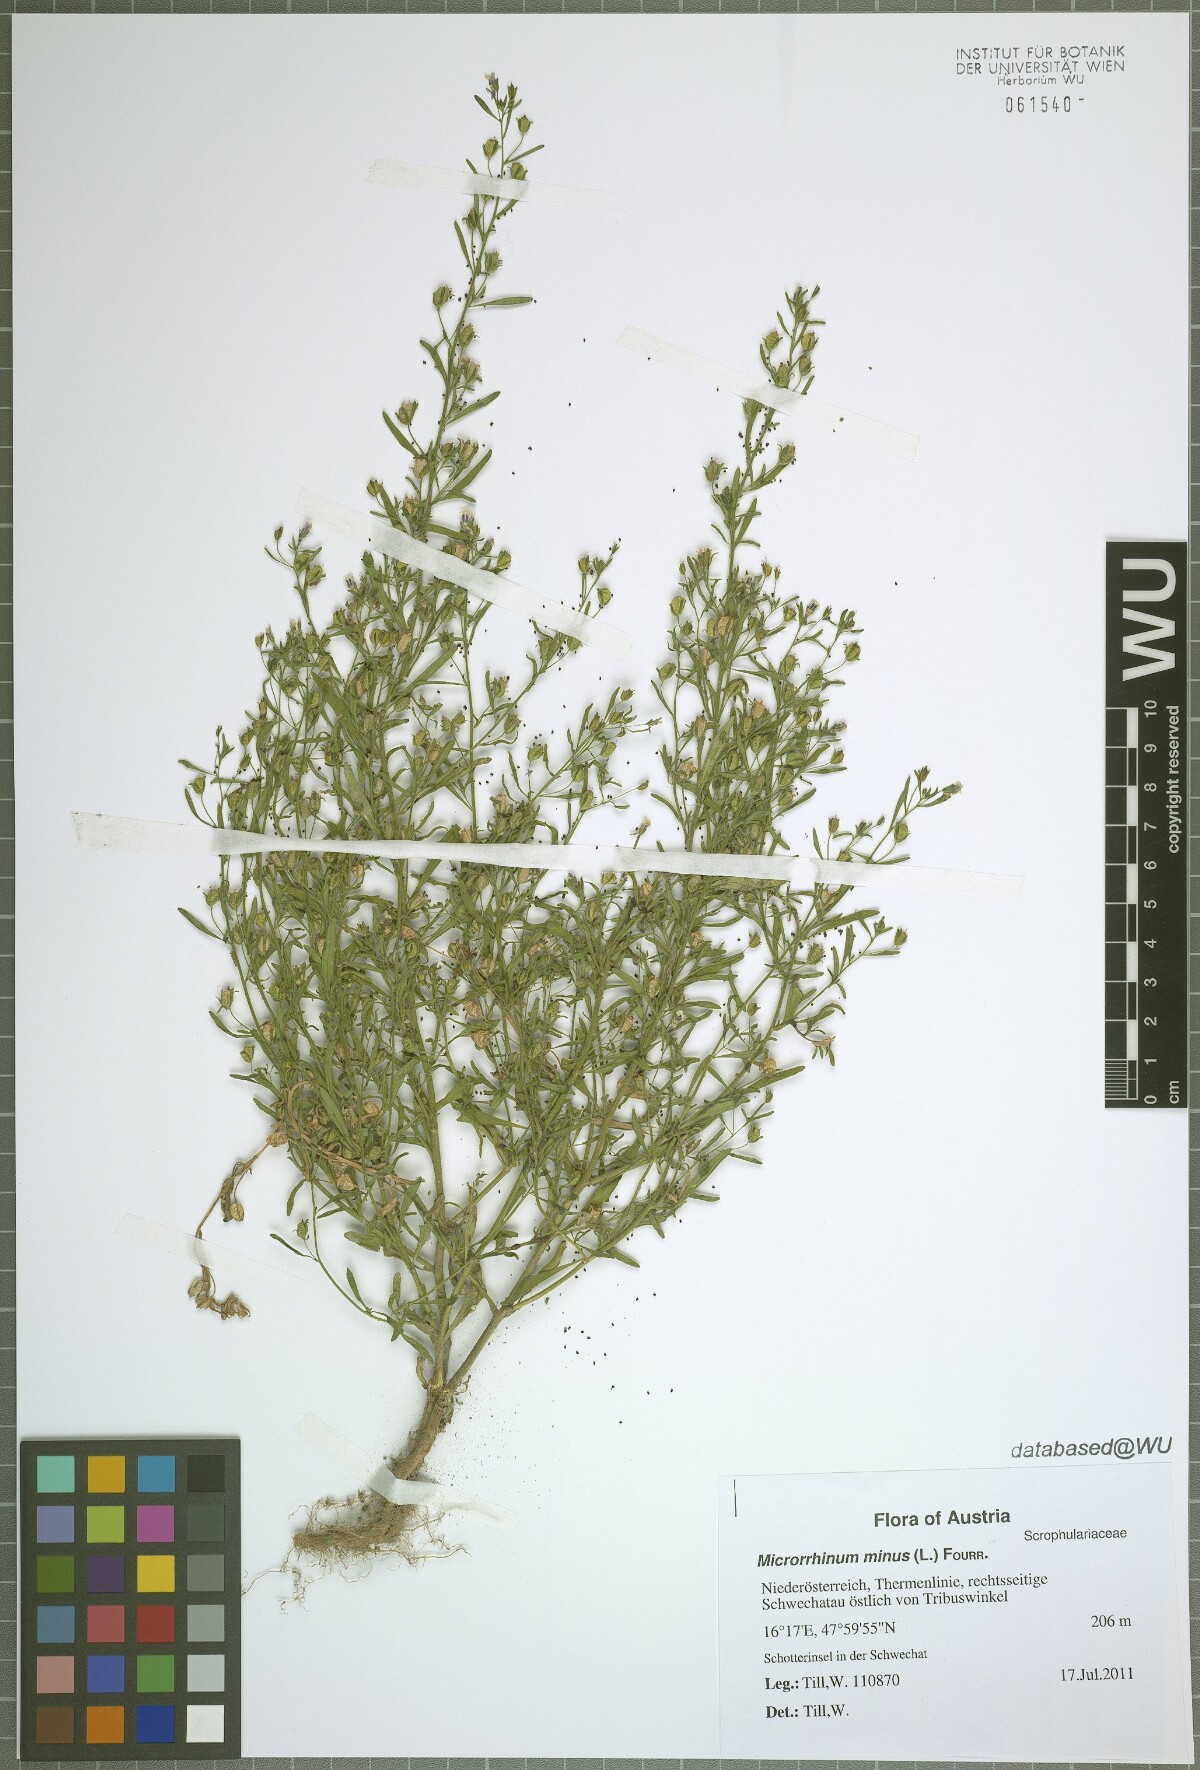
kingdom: Plantae
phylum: Tracheophyta
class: Magnoliopsida
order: Lamiales
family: Plantaginaceae
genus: Chaenorhinum
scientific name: Chaenorhinum minus
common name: Dwarf snapdragon
